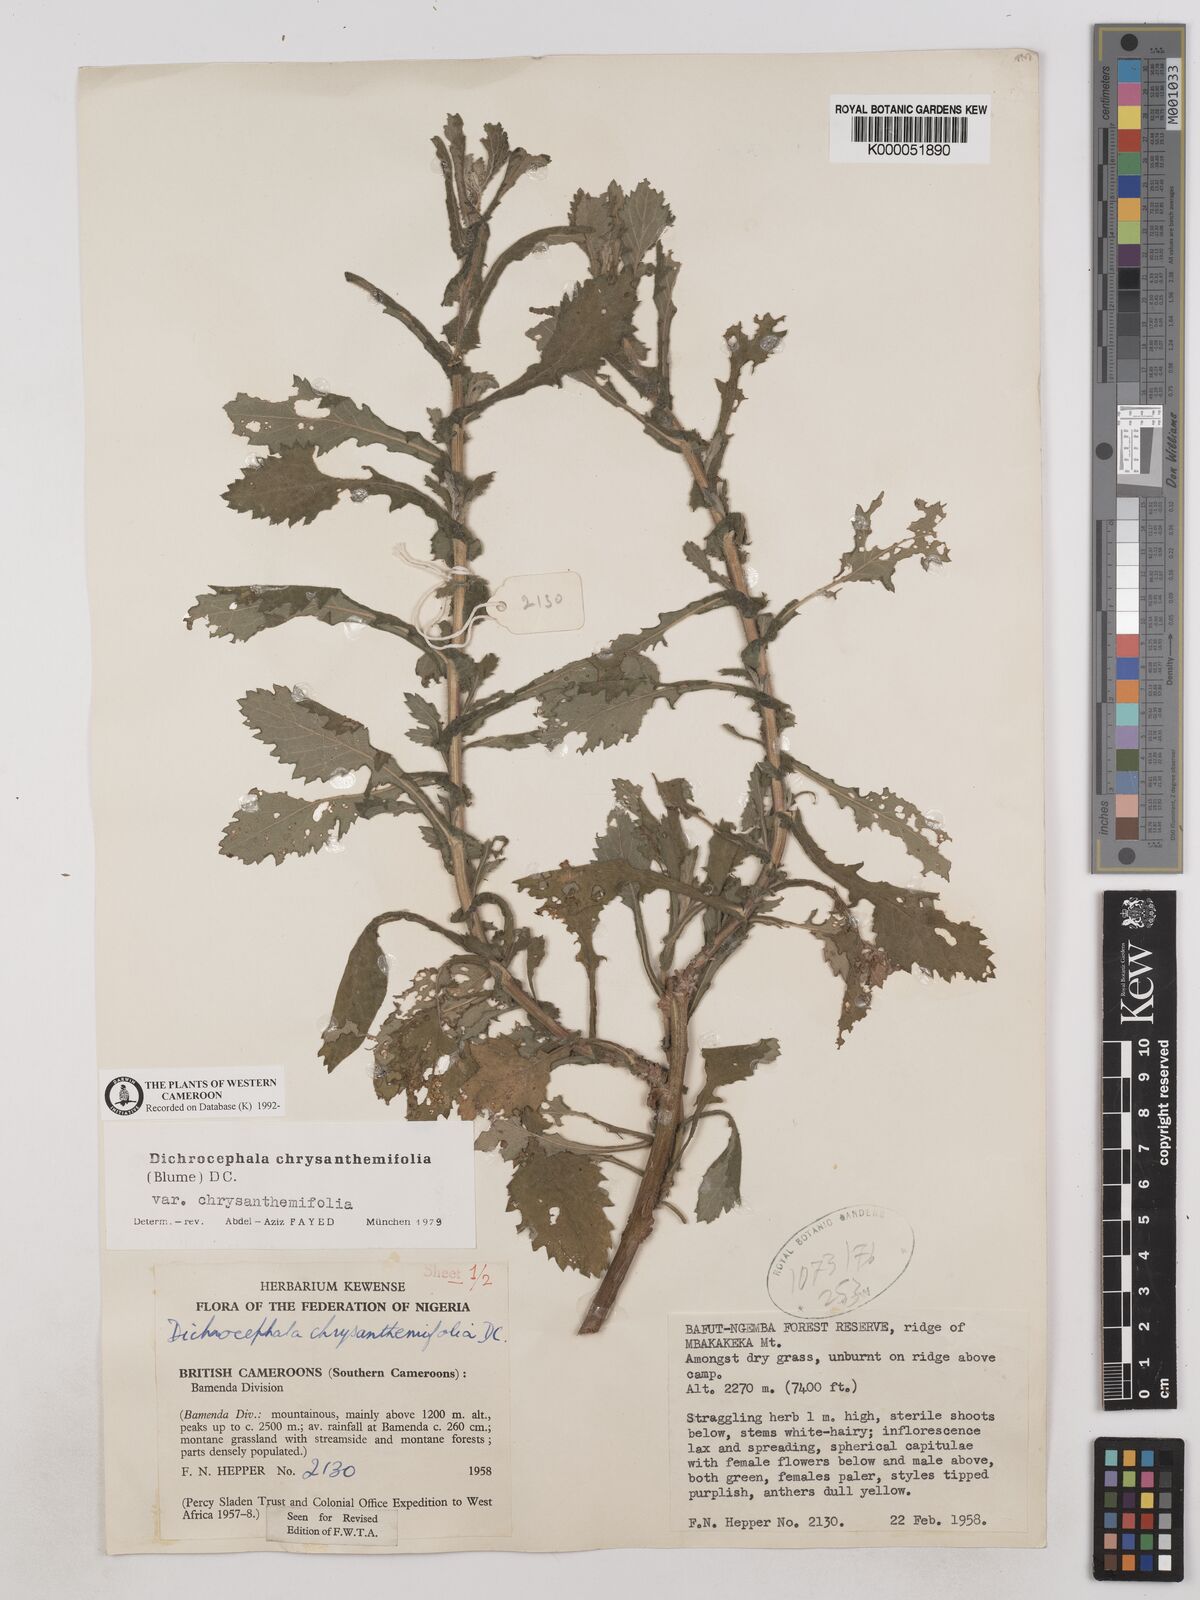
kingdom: Plantae
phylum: Tracheophyta
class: Magnoliopsida
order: Asterales
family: Asteraceae
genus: Dichrocephala
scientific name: Dichrocephala chrysanthemifolia
